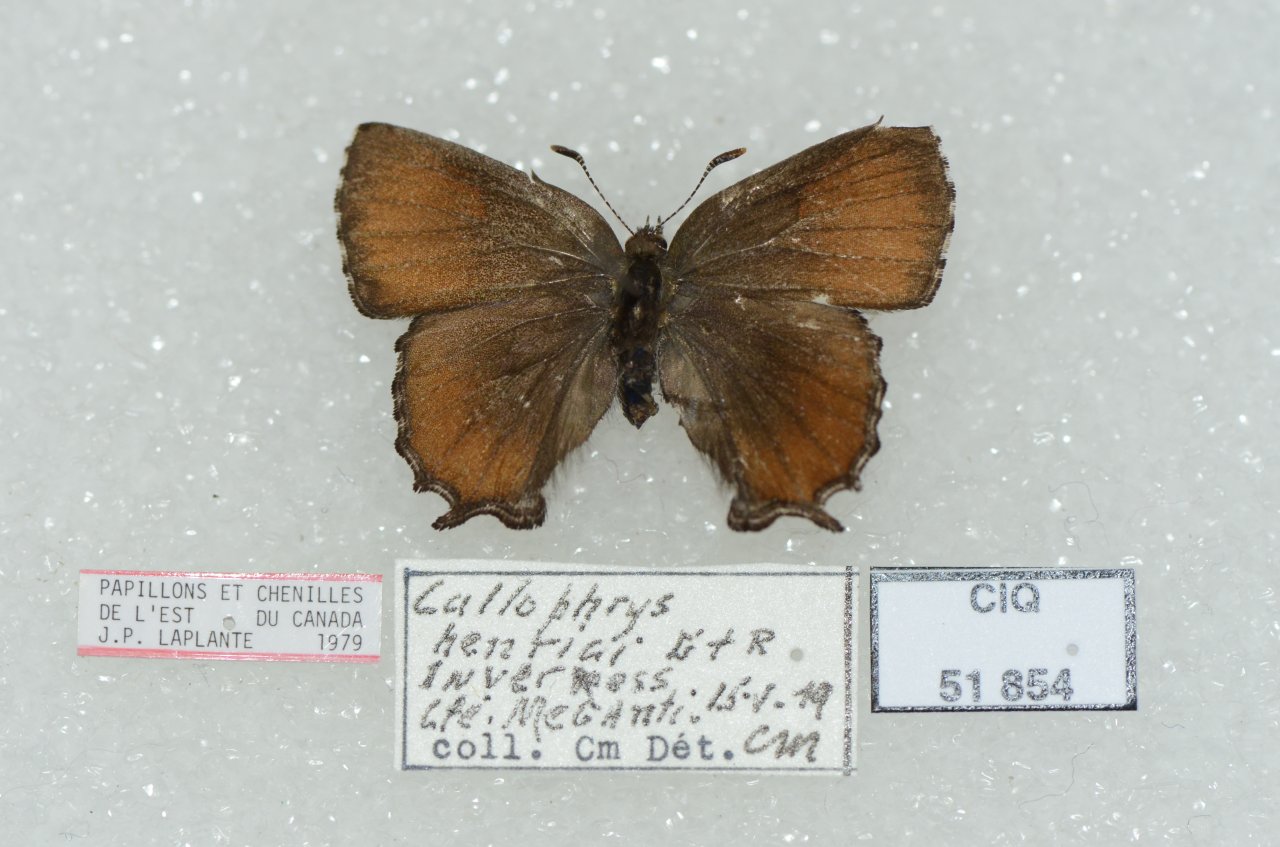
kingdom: Animalia
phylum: Arthropoda
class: Insecta
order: Lepidoptera
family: Lycaenidae
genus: Incisalia
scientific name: Incisalia henrici
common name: Henry's Elfin
